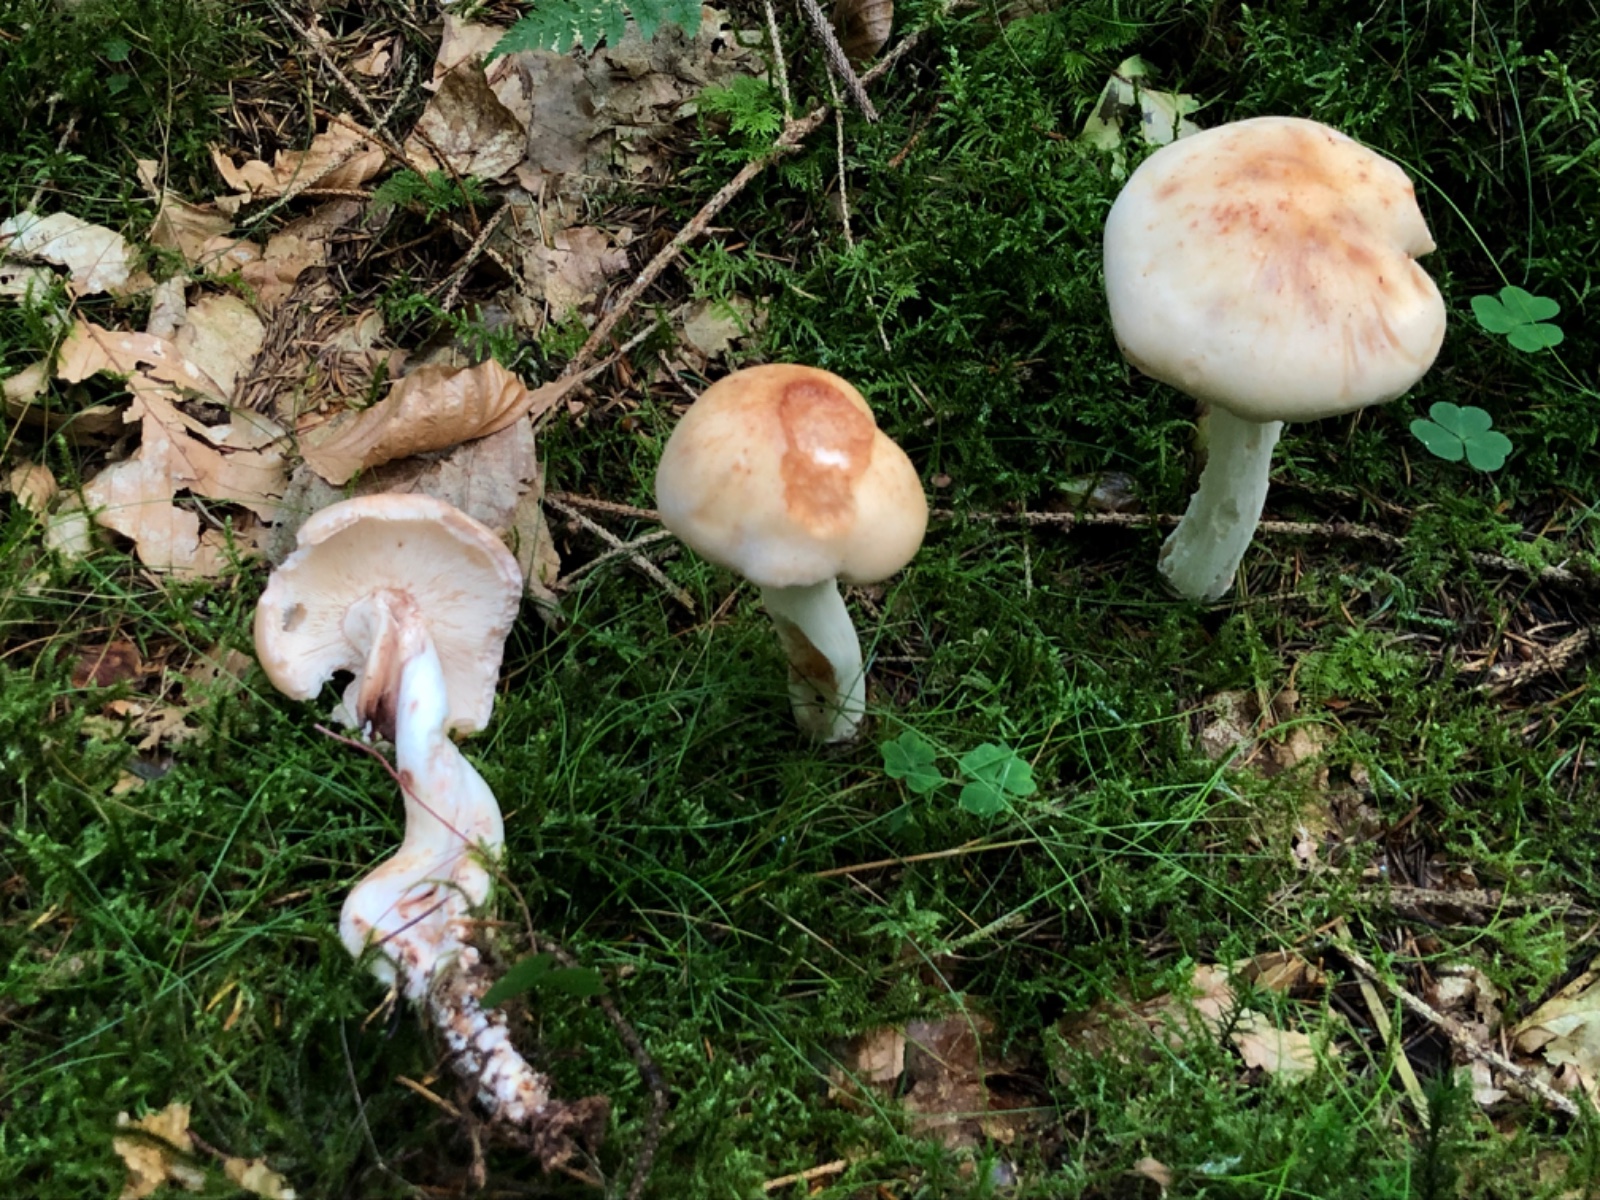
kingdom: Fungi
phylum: Basidiomycota
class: Agaricomycetes
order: Agaricales
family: Omphalotaceae
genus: Rhodocollybia
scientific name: Rhodocollybia maculata
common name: plettet fladhat
